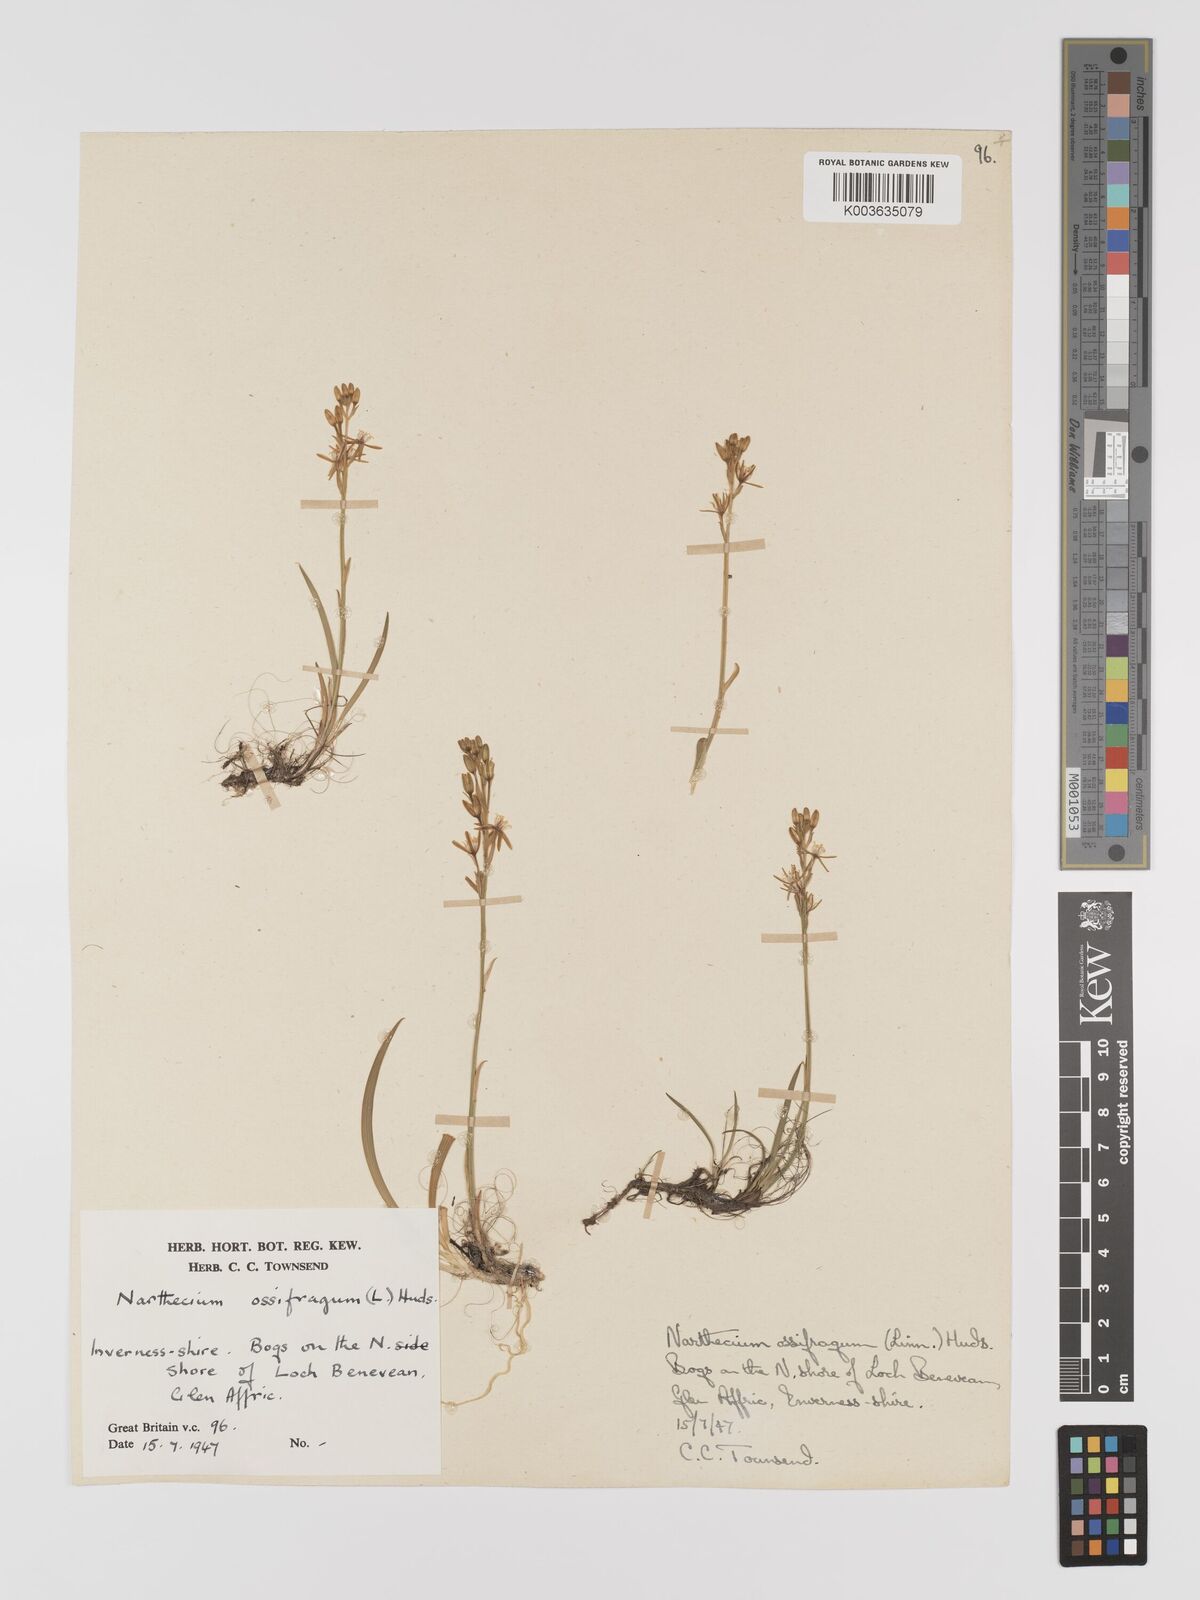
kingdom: Plantae
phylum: Tracheophyta
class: Liliopsida
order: Dioscoreales
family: Nartheciaceae
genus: Narthecium
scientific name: Narthecium
